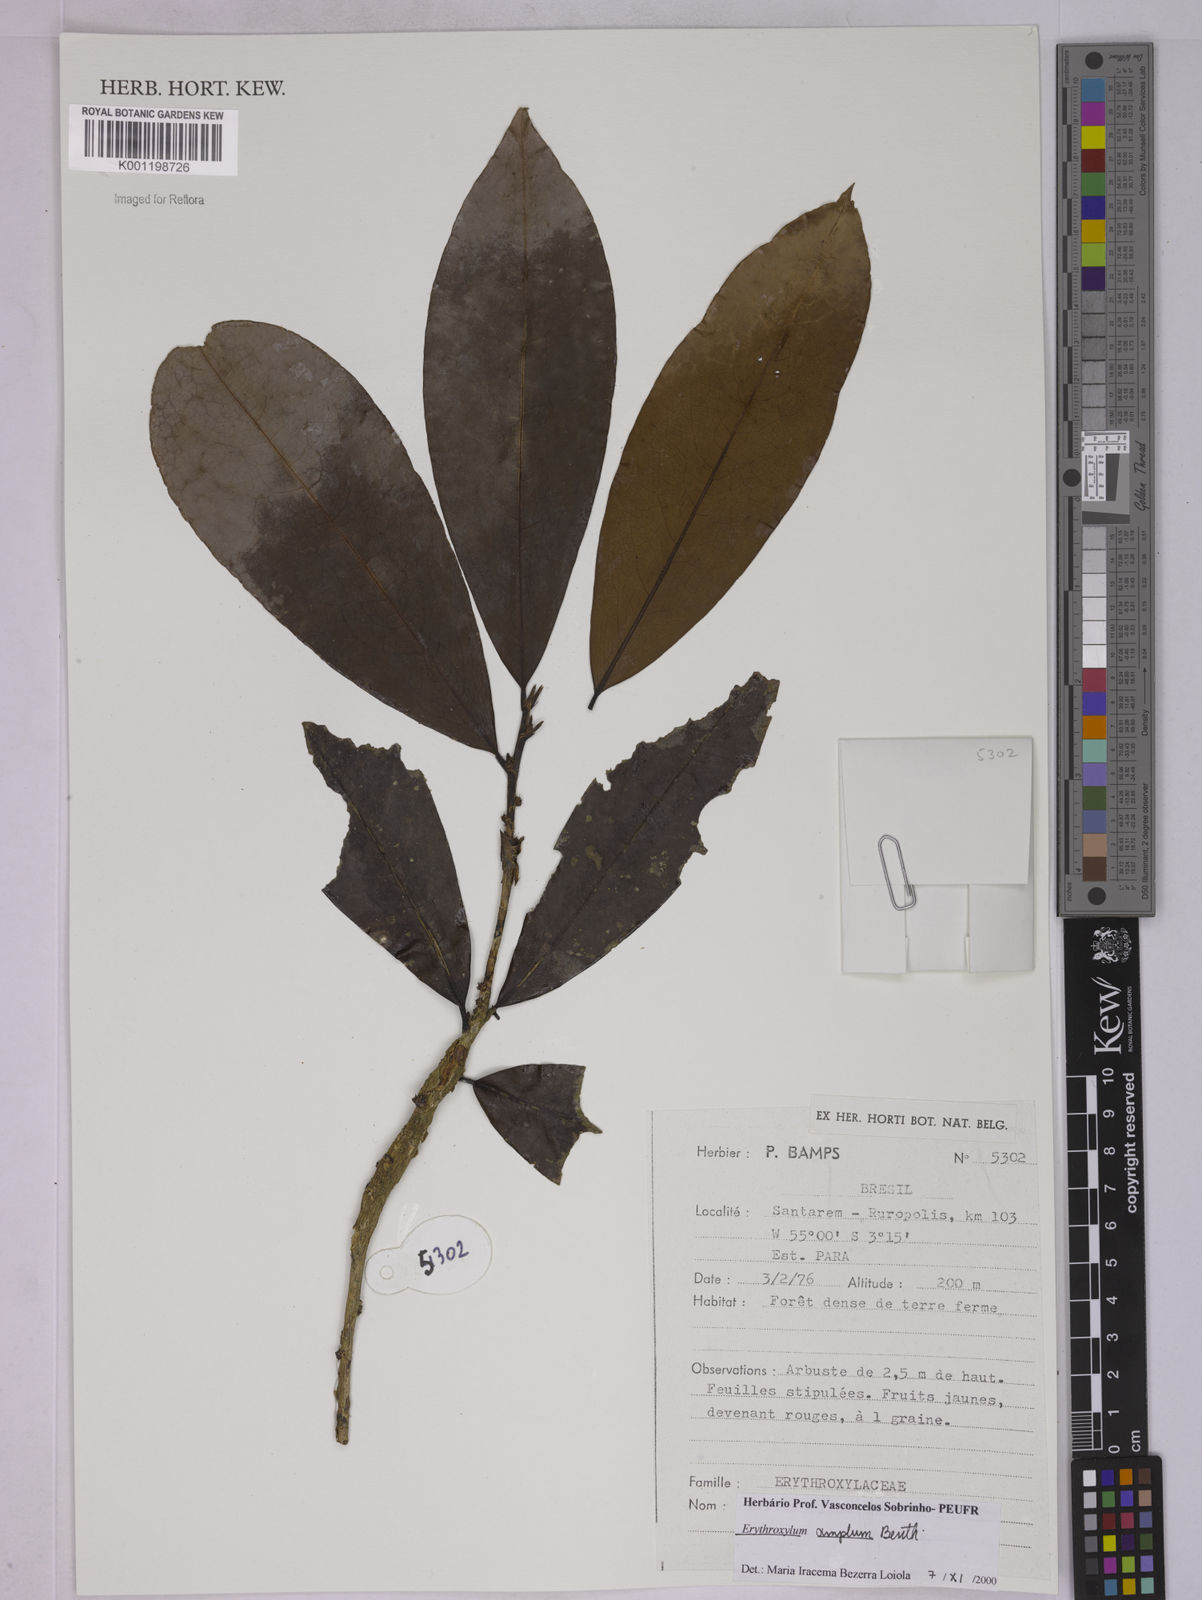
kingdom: Plantae
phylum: Tracheophyta
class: Magnoliopsida
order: Malpighiales
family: Erythroxylaceae
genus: Erythroxylum
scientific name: Erythroxylum amplum
